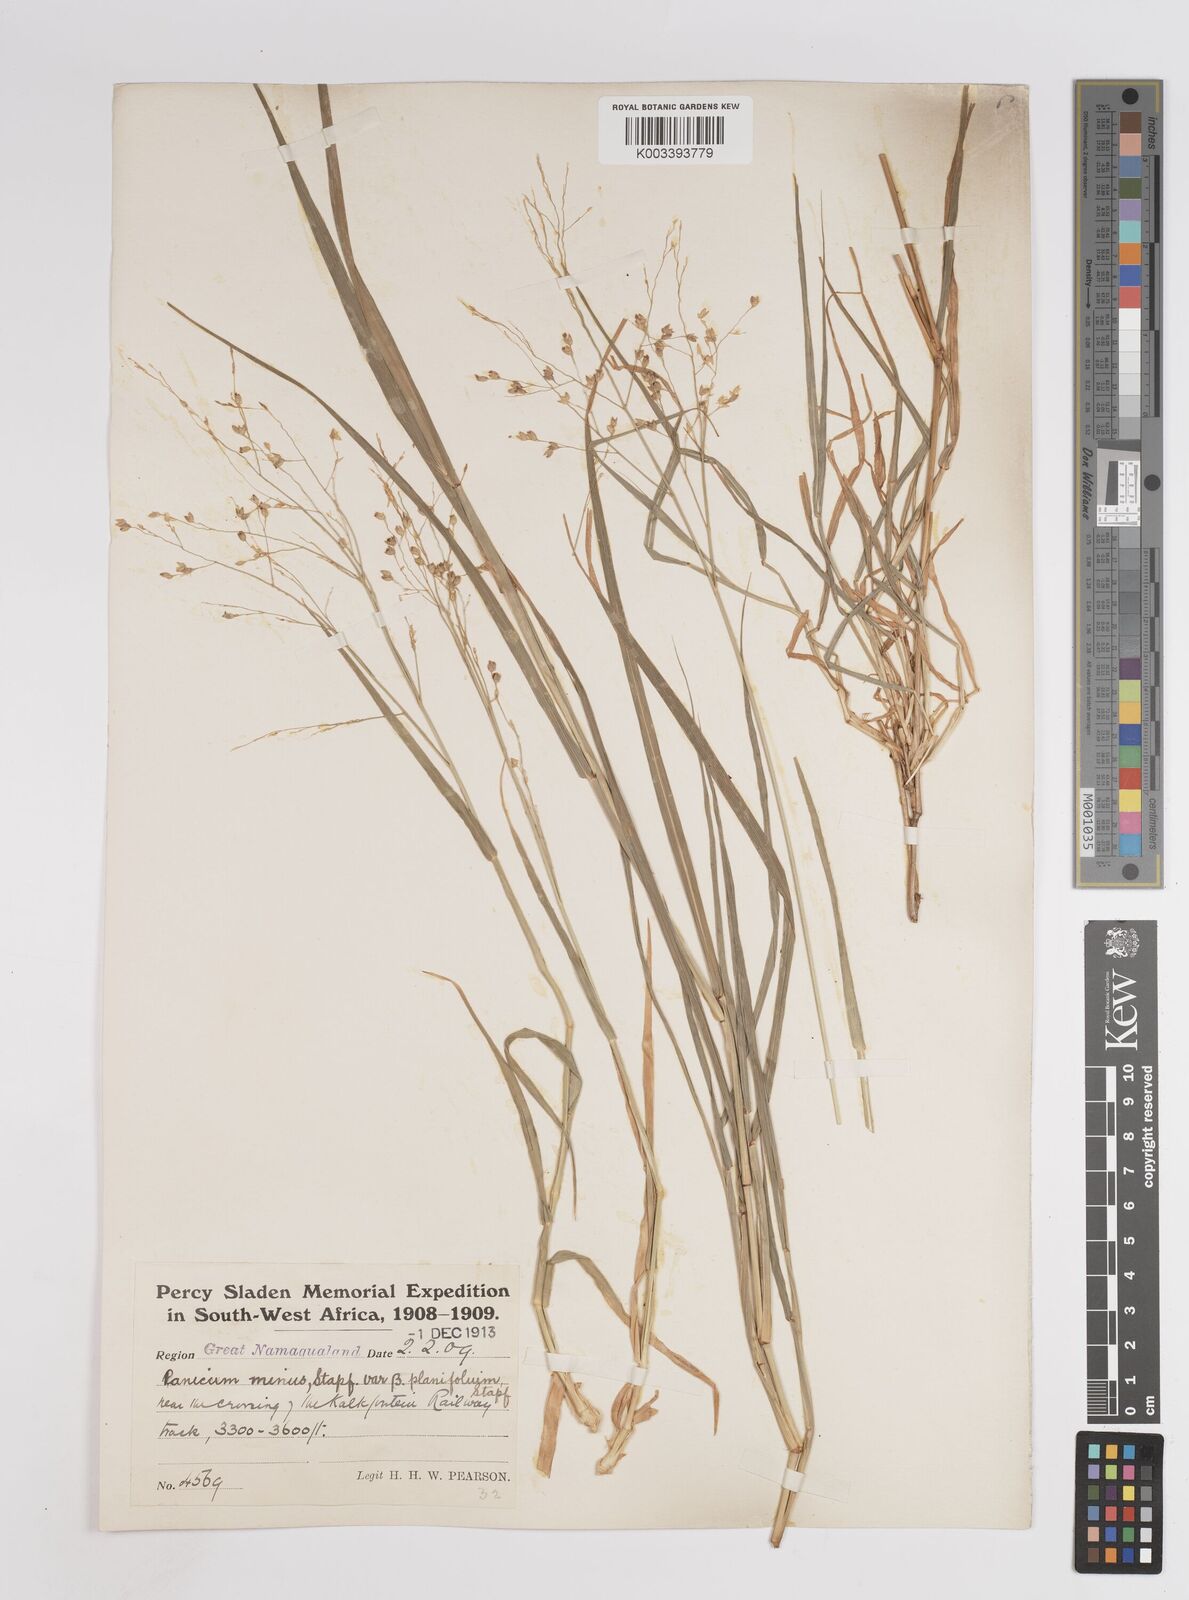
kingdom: Plantae
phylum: Tracheophyta
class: Liliopsida
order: Poales
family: Poaceae
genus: Panicum
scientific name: Panicum arbusculum
